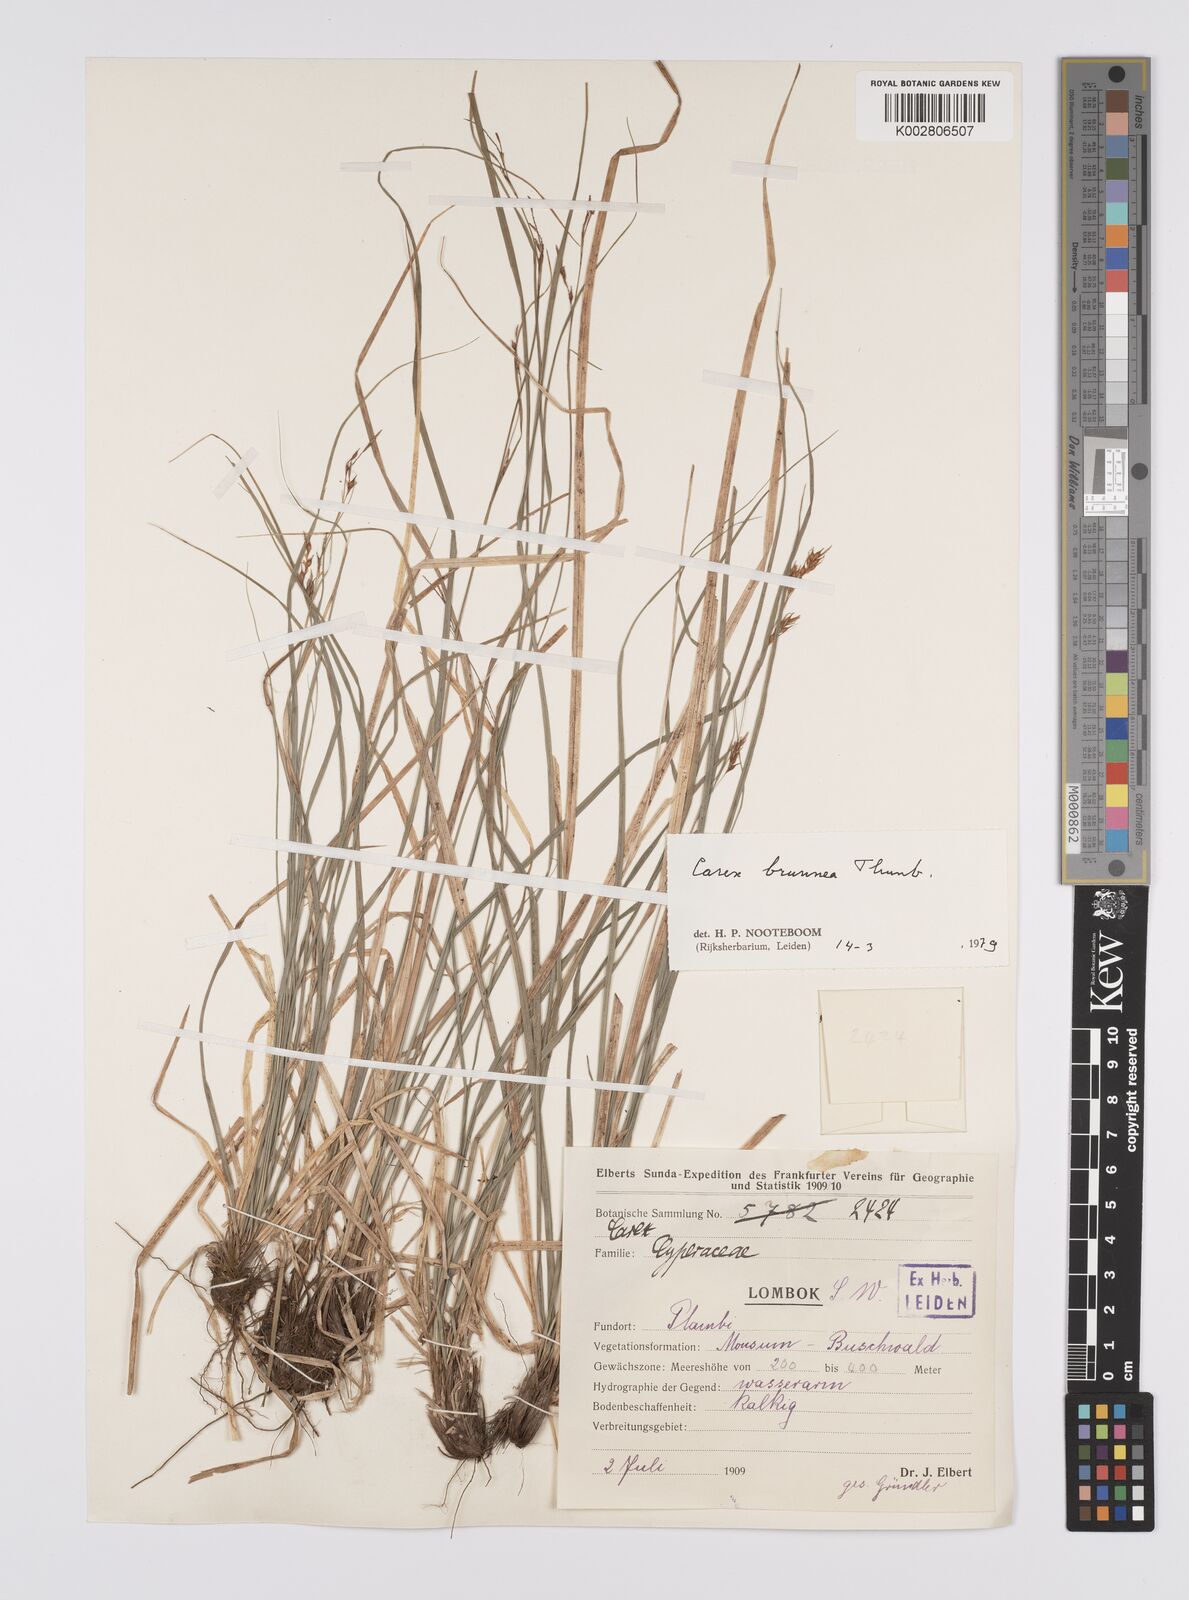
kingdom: Plantae
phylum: Tracheophyta
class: Liliopsida
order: Poales
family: Cyperaceae
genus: Carex
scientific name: Carex brunnea
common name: Greater brown sedge
